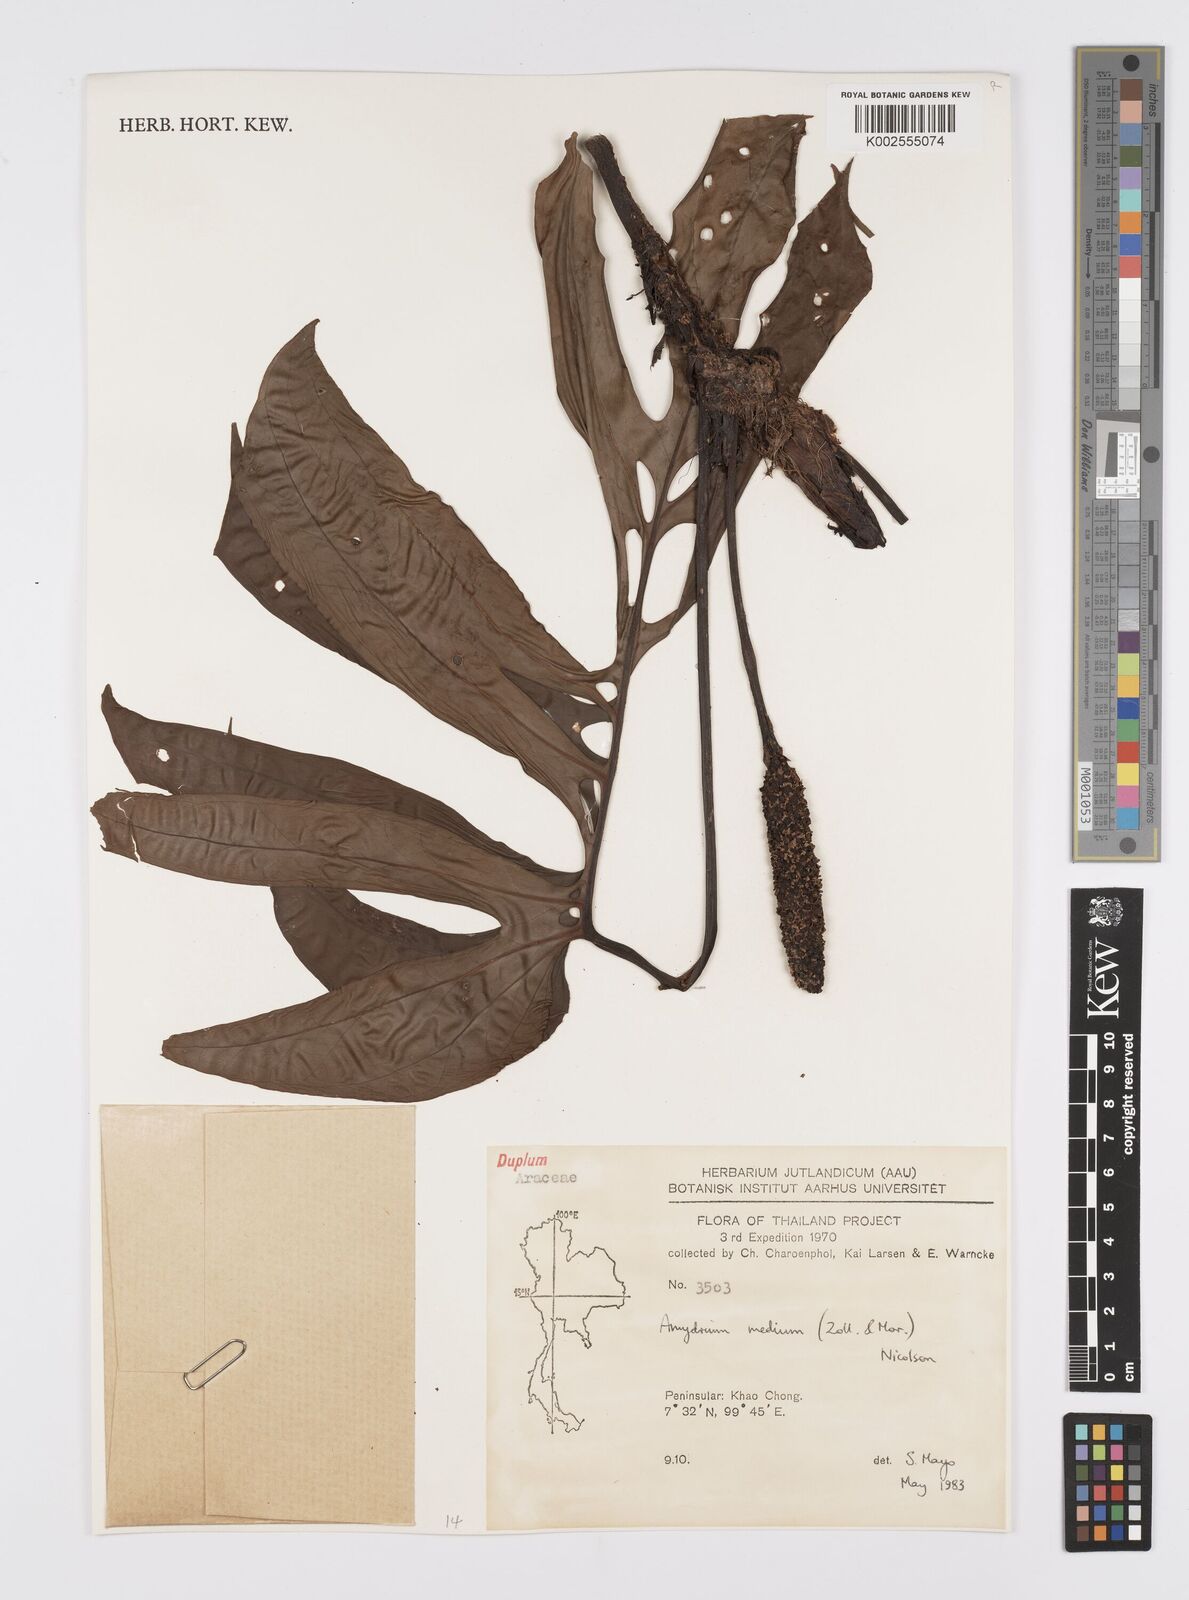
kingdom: Plantae
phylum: Tracheophyta
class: Liliopsida
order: Alismatales
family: Araceae
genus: Amydrium
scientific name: Amydrium medium
